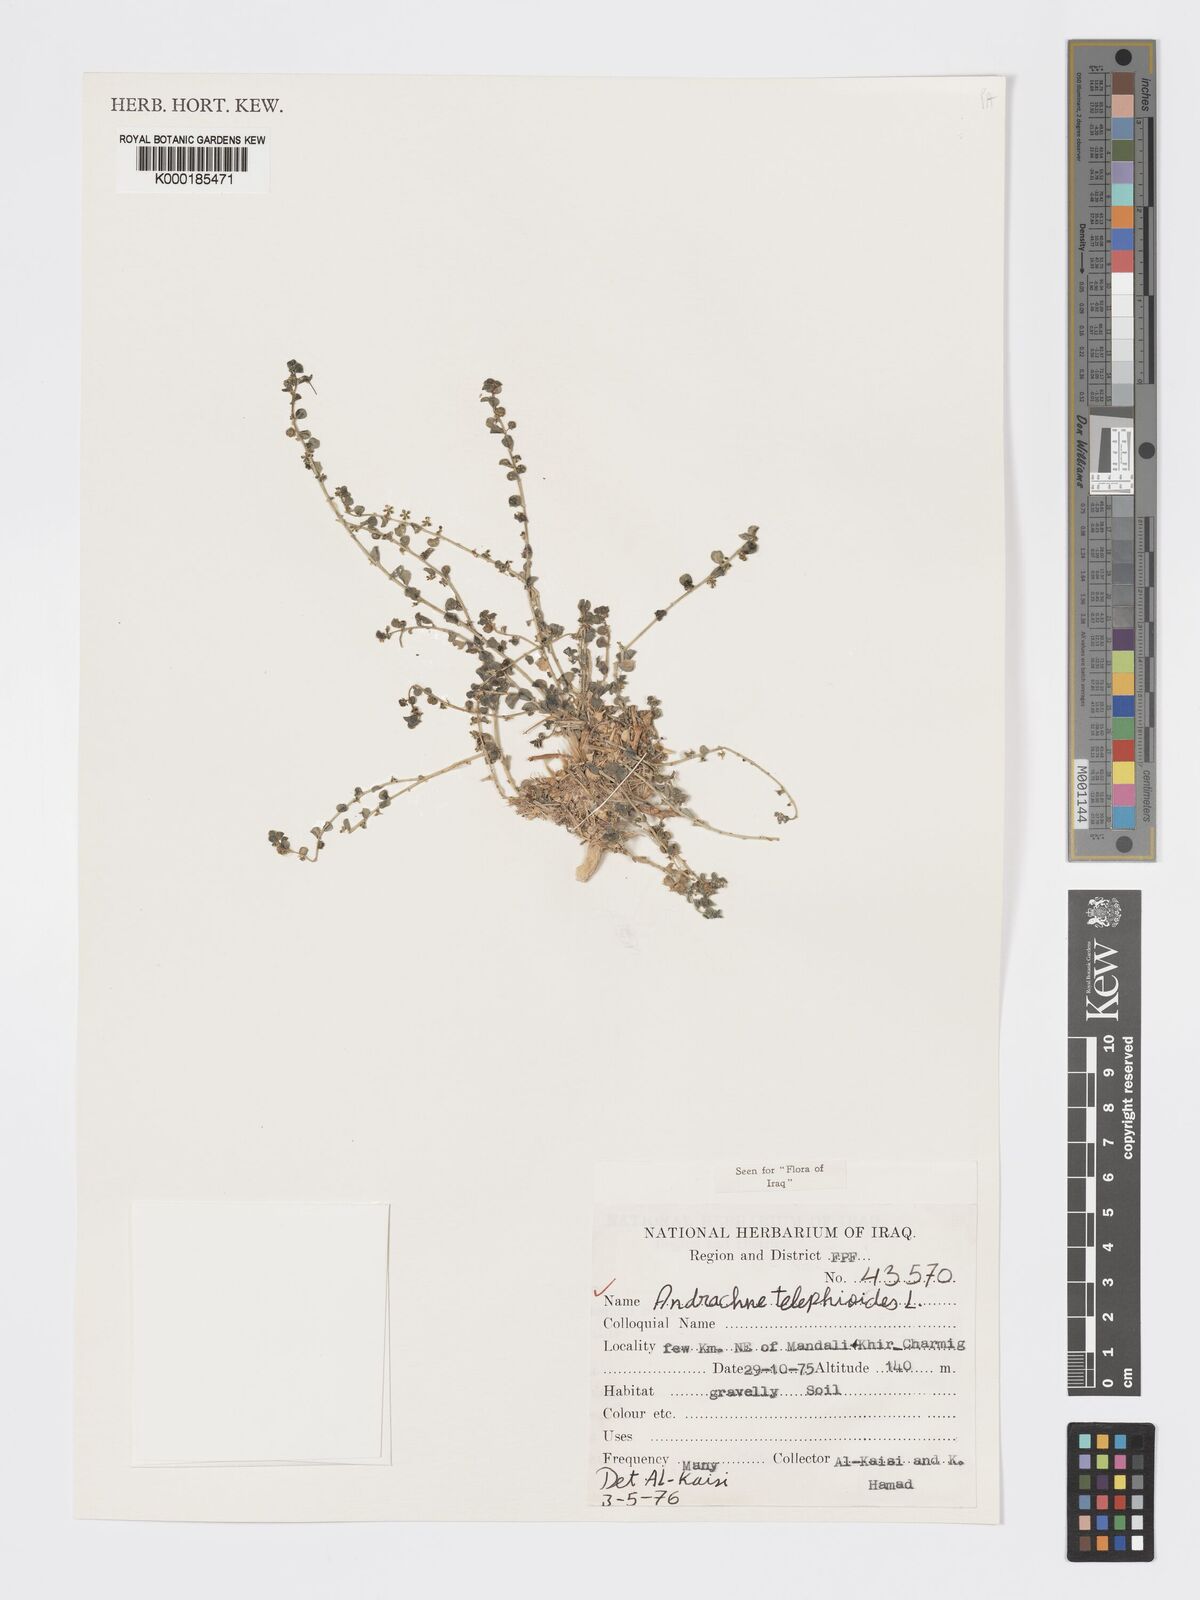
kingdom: Plantae
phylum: Tracheophyta
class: Magnoliopsida
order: Malpighiales
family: Phyllanthaceae
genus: Andrachne
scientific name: Andrachne telephioides
